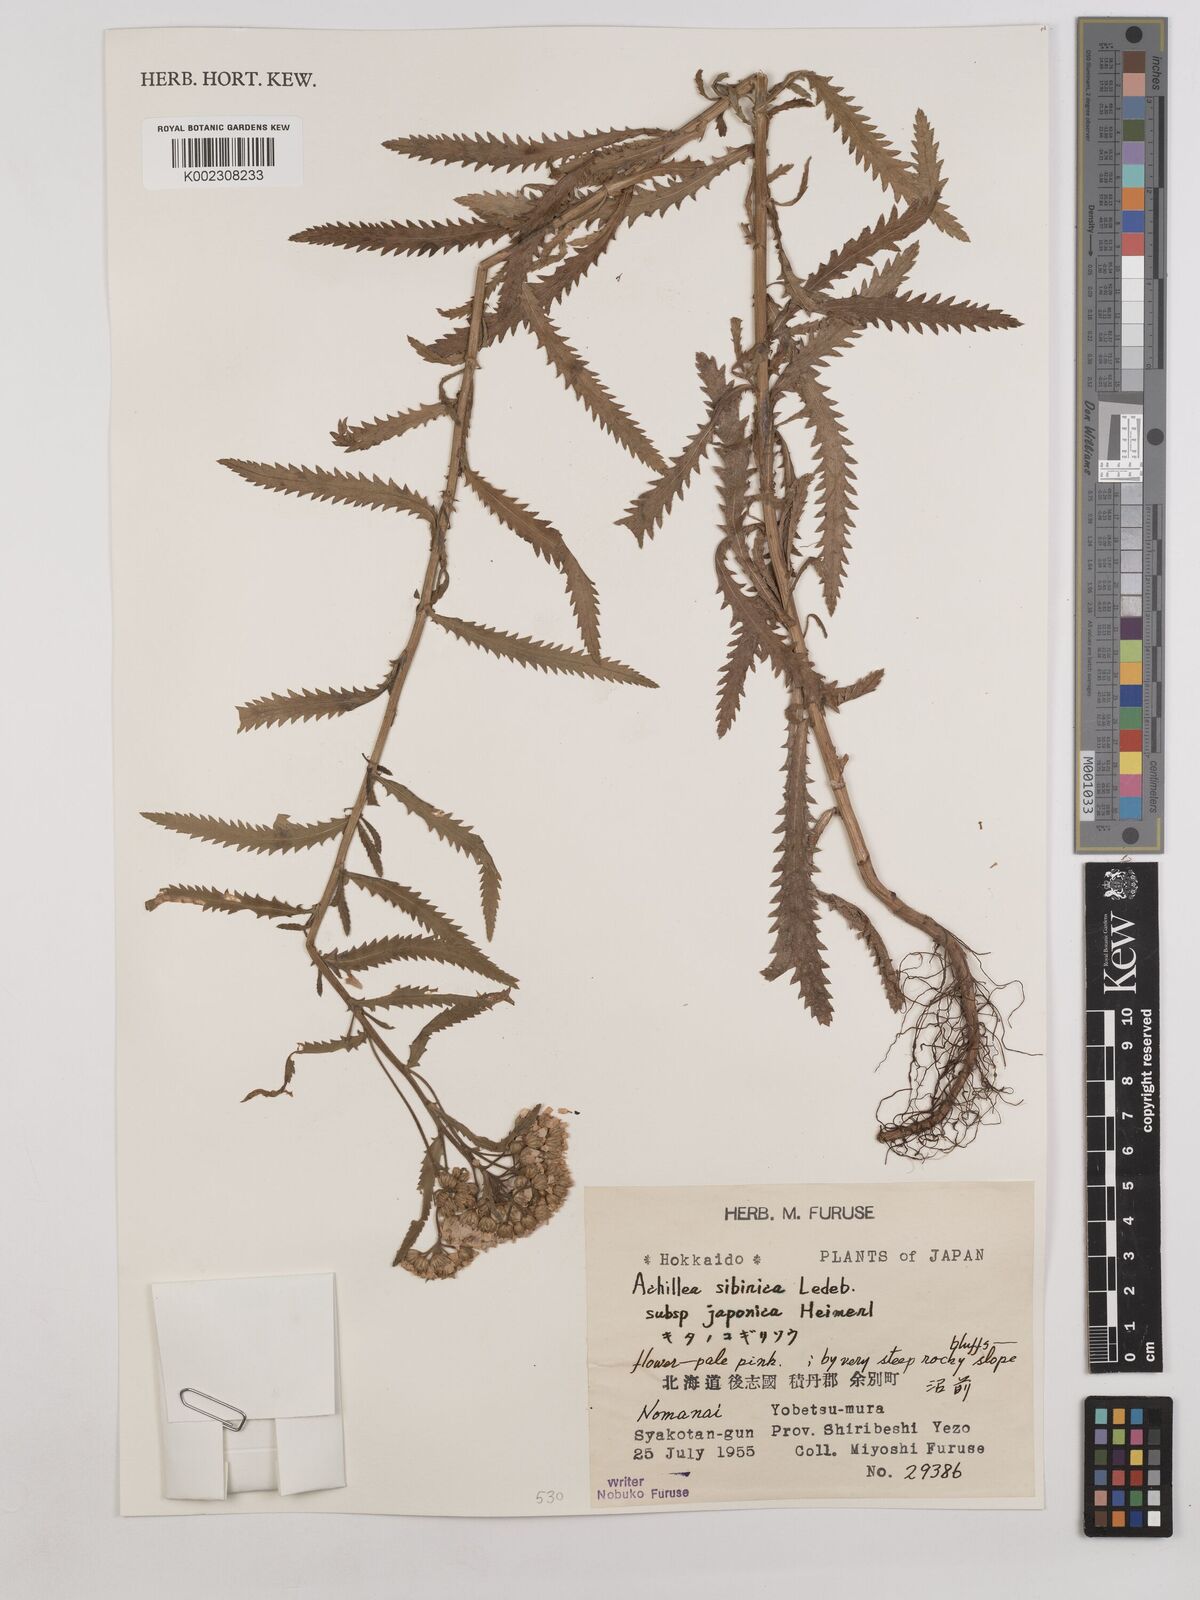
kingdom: Plantae
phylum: Tracheophyta
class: Magnoliopsida
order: Asterales
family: Asteraceae
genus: Achillea
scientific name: Achillea alpina
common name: Siberian yarrow
